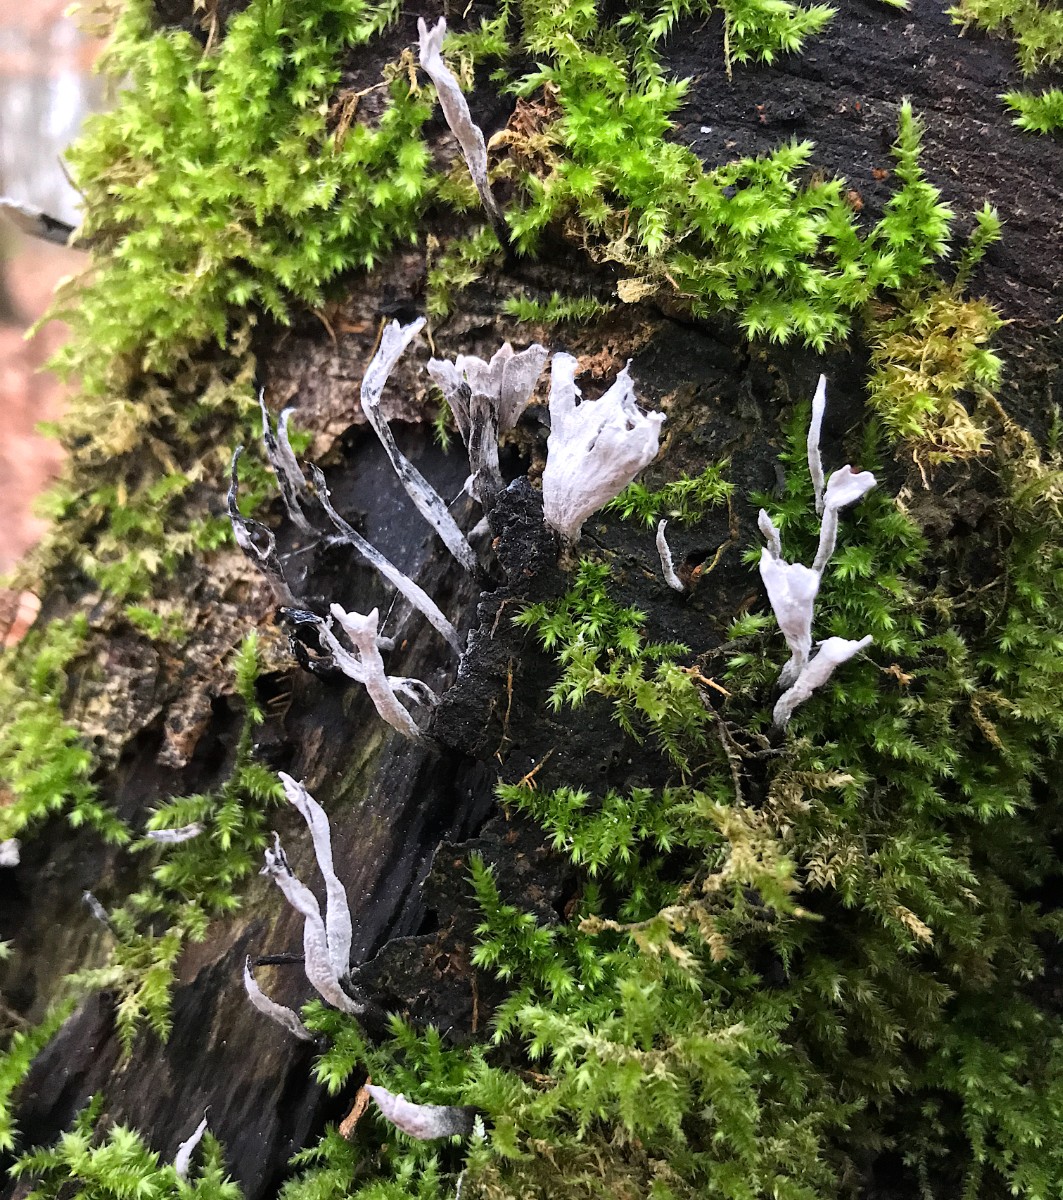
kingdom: Fungi
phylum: Ascomycota
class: Sordariomycetes
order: Xylariales
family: Xylariaceae
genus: Xylaria
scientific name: Xylaria hypoxylon
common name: grenet stødsvamp
